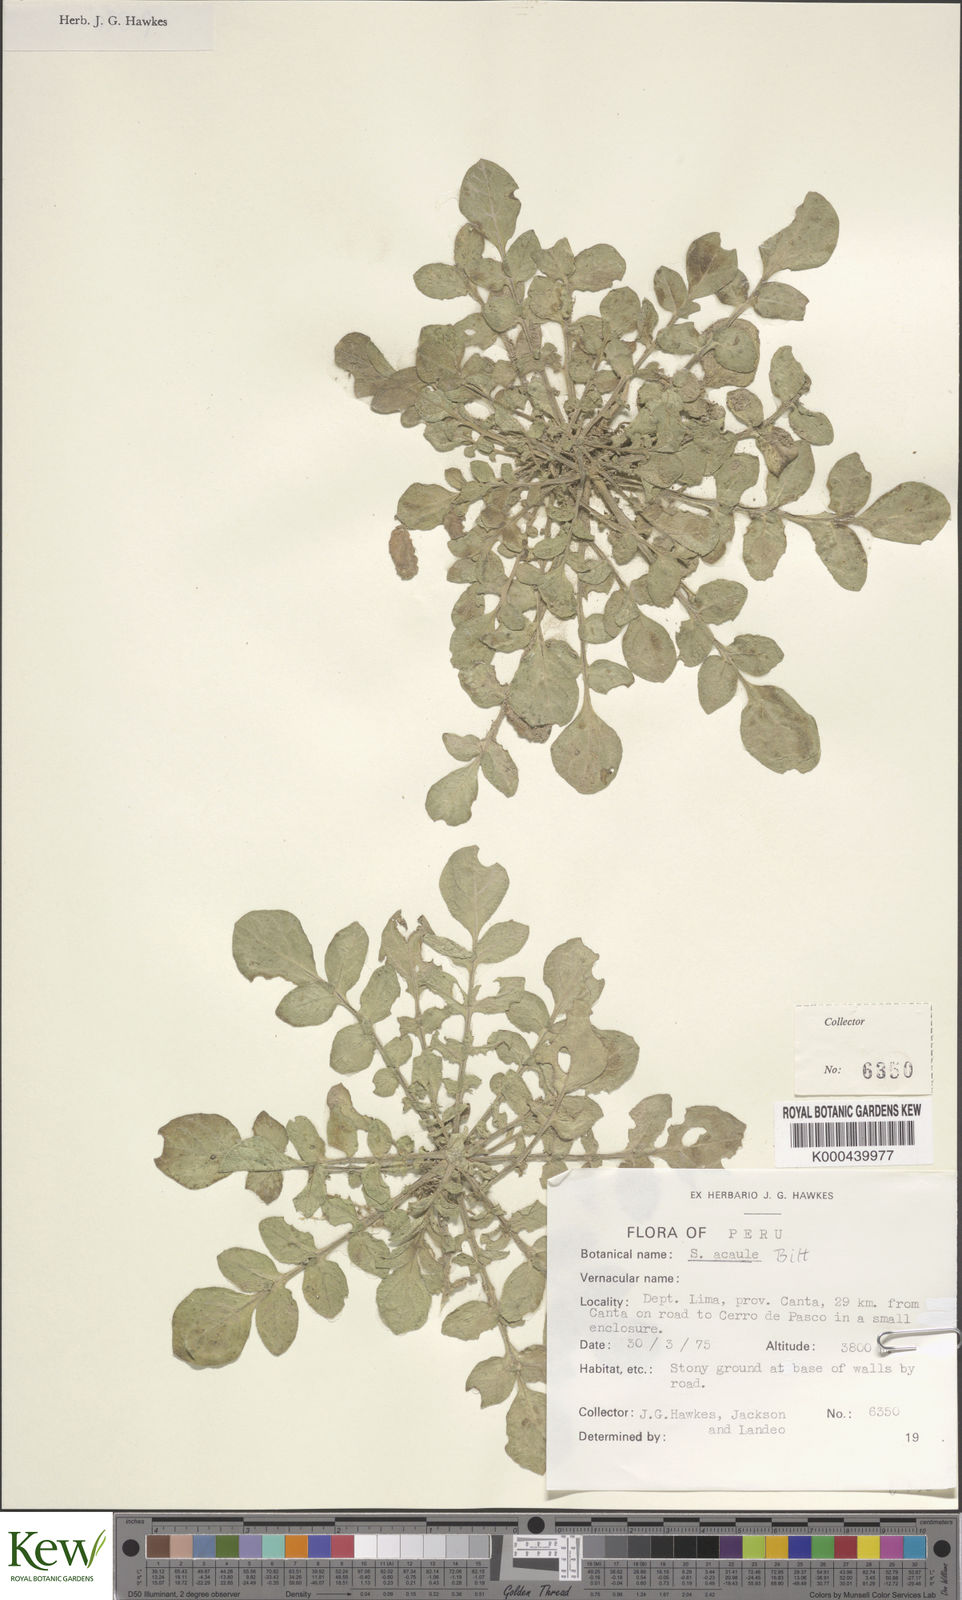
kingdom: Plantae
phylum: Tracheophyta
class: Magnoliopsida
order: Solanales
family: Solanaceae
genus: Solanum
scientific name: Solanum acaule
